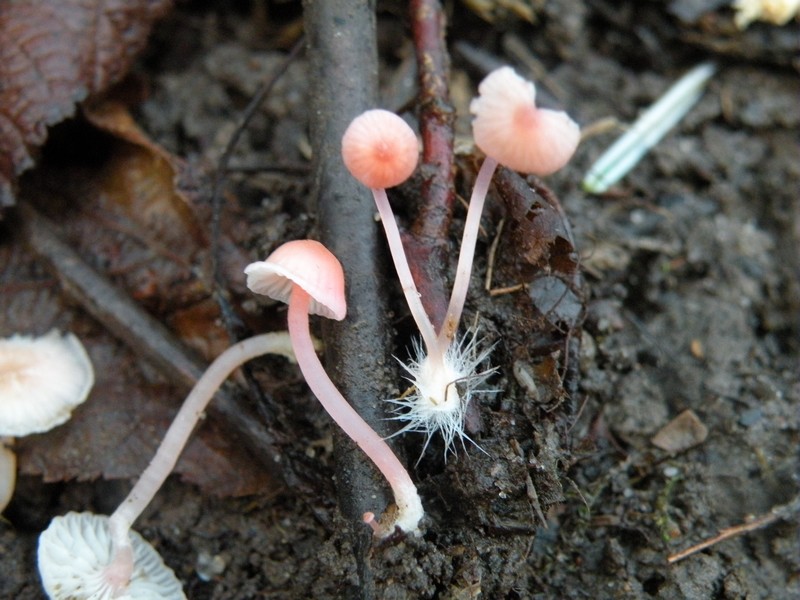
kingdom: Fungi
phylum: Basidiomycota
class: Agaricomycetes
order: Agaricales
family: Mycenaceae
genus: Atheniella
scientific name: Atheniella adonis
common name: rønnerød huesvamp
